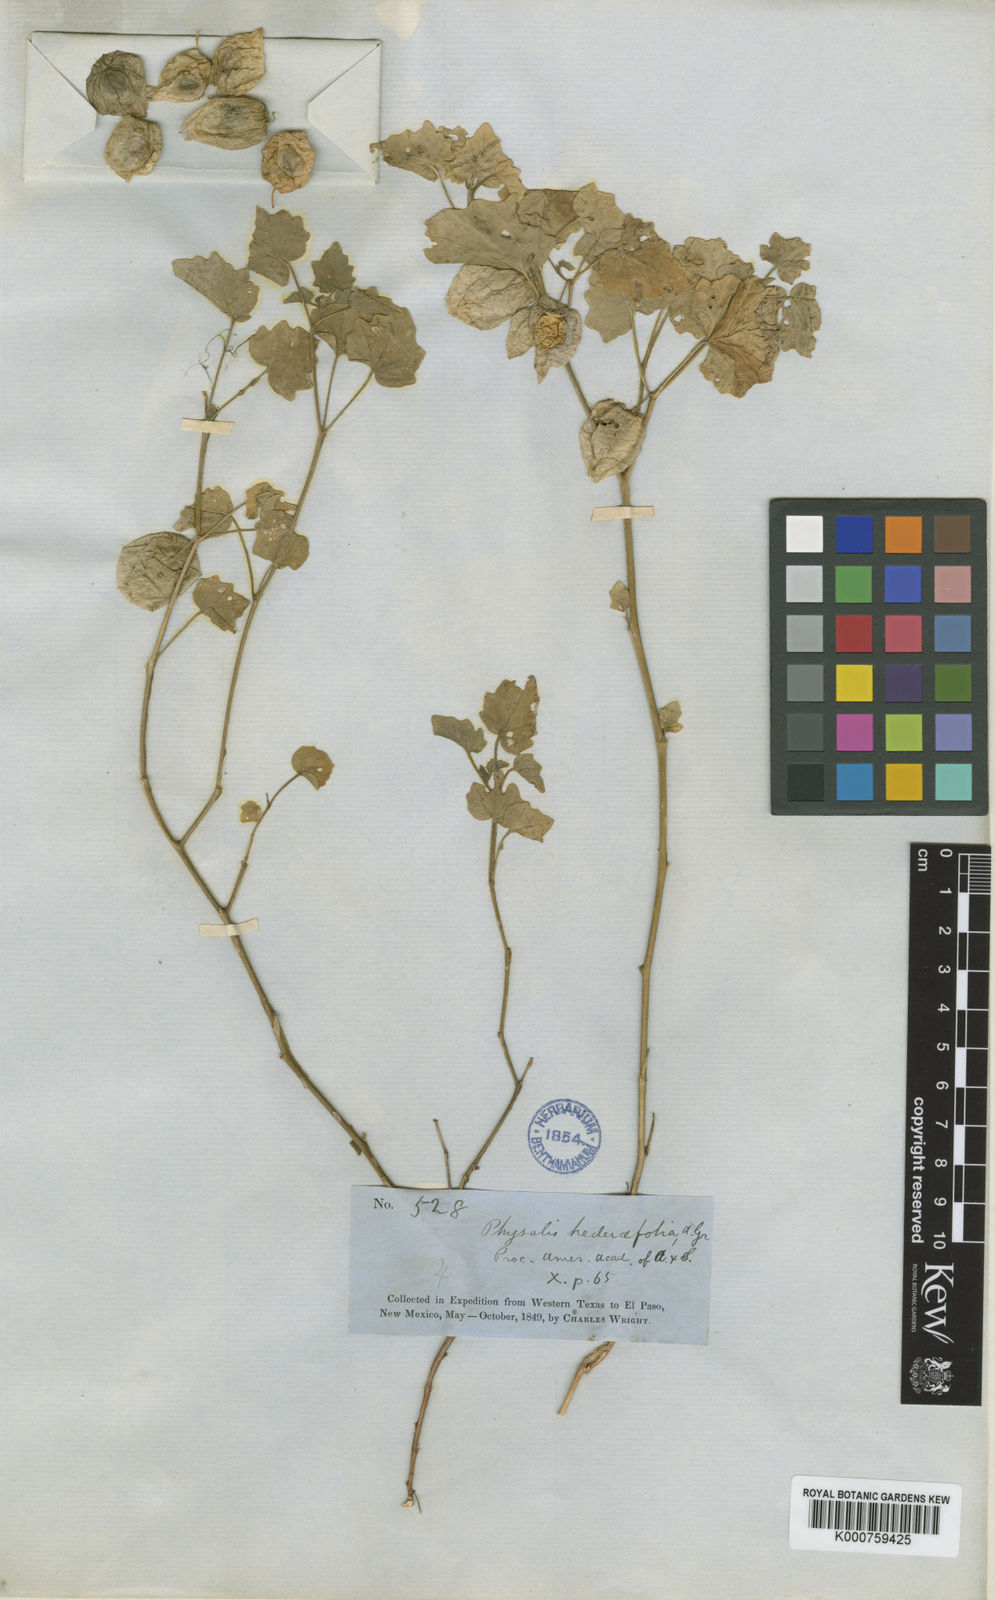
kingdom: Plantae
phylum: Tracheophyta
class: Magnoliopsida
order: Solanales
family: Solanaceae
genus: Physalis
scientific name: Physalis hederifolia
